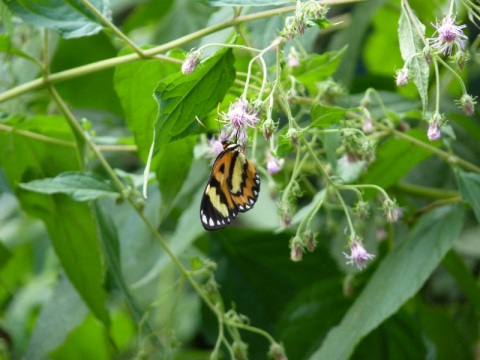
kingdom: Animalia
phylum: Arthropoda
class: Insecta
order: Lepidoptera
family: Nymphalidae
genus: Mechanitis
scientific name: Mechanitis polymnia
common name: Polymnia Tigerwing
